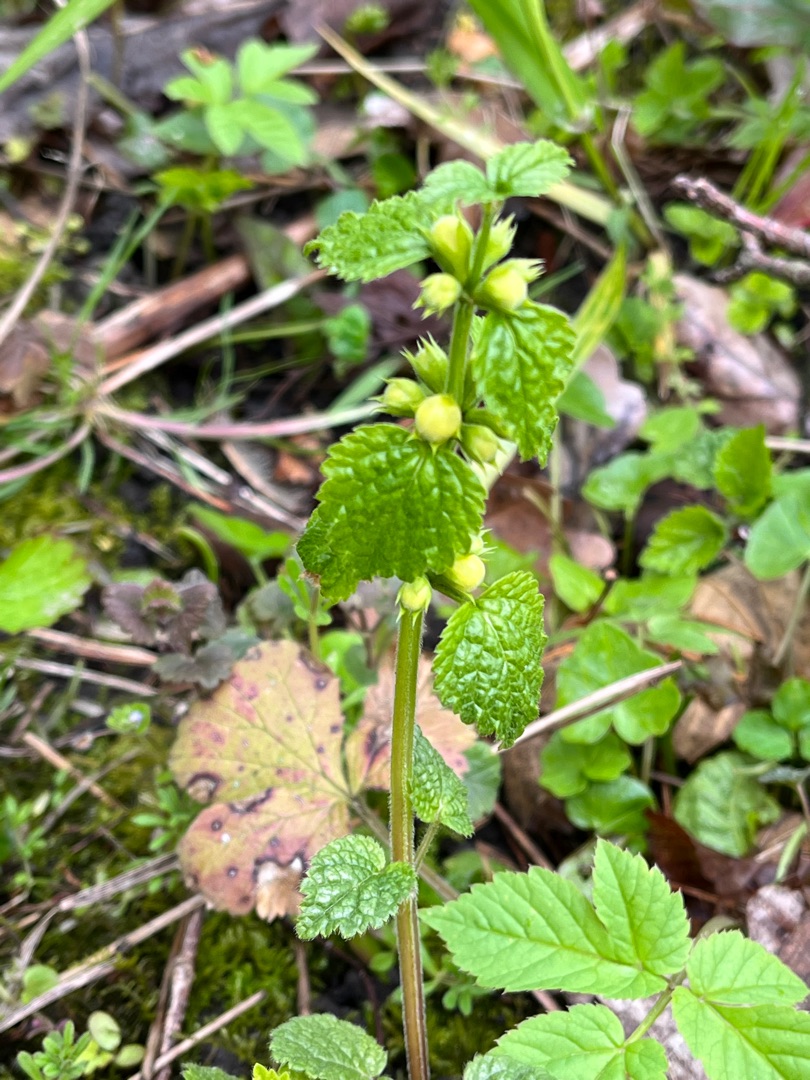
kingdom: Plantae
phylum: Tracheophyta
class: Magnoliopsida
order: Lamiales
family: Lamiaceae
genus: Lamium
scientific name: Lamium galeobdolon
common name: Almindelig guldnælde
